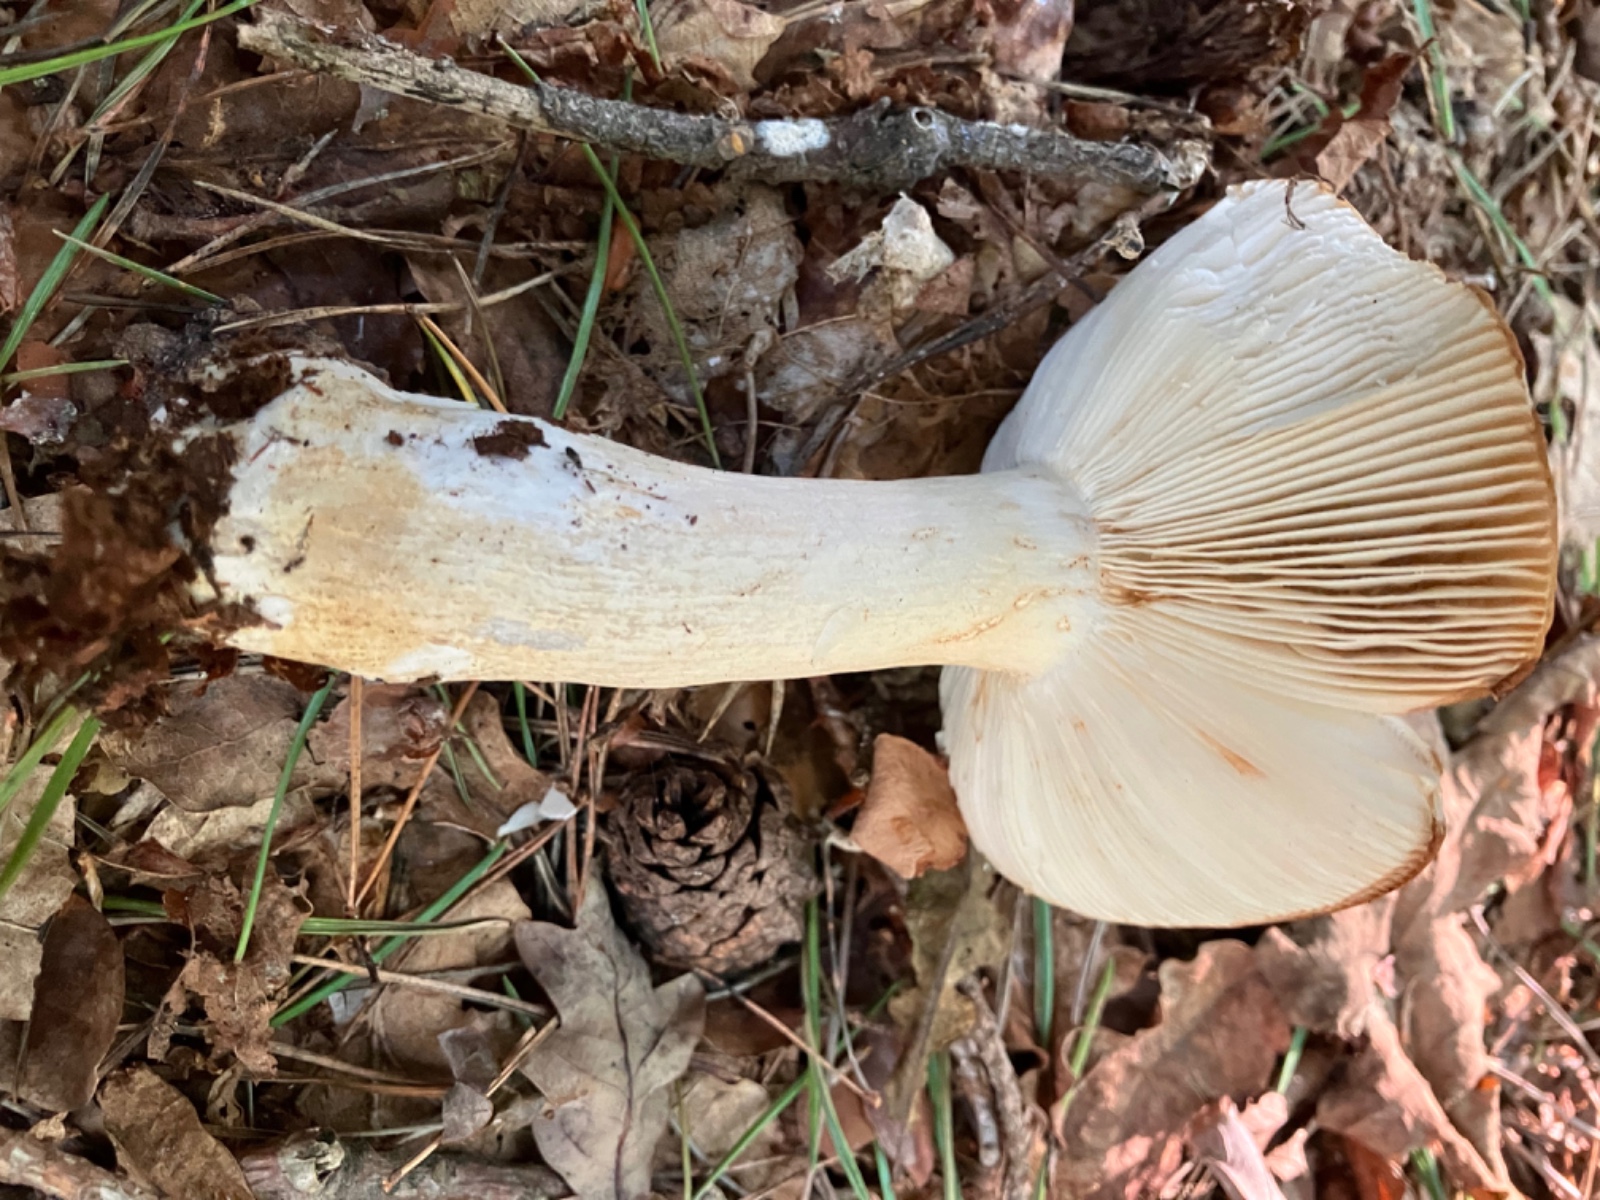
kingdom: Fungi
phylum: Basidiomycota
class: Agaricomycetes
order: Russulales
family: Russulaceae
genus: Russula
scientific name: Russula ochroleuca
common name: okkergul skørhat
